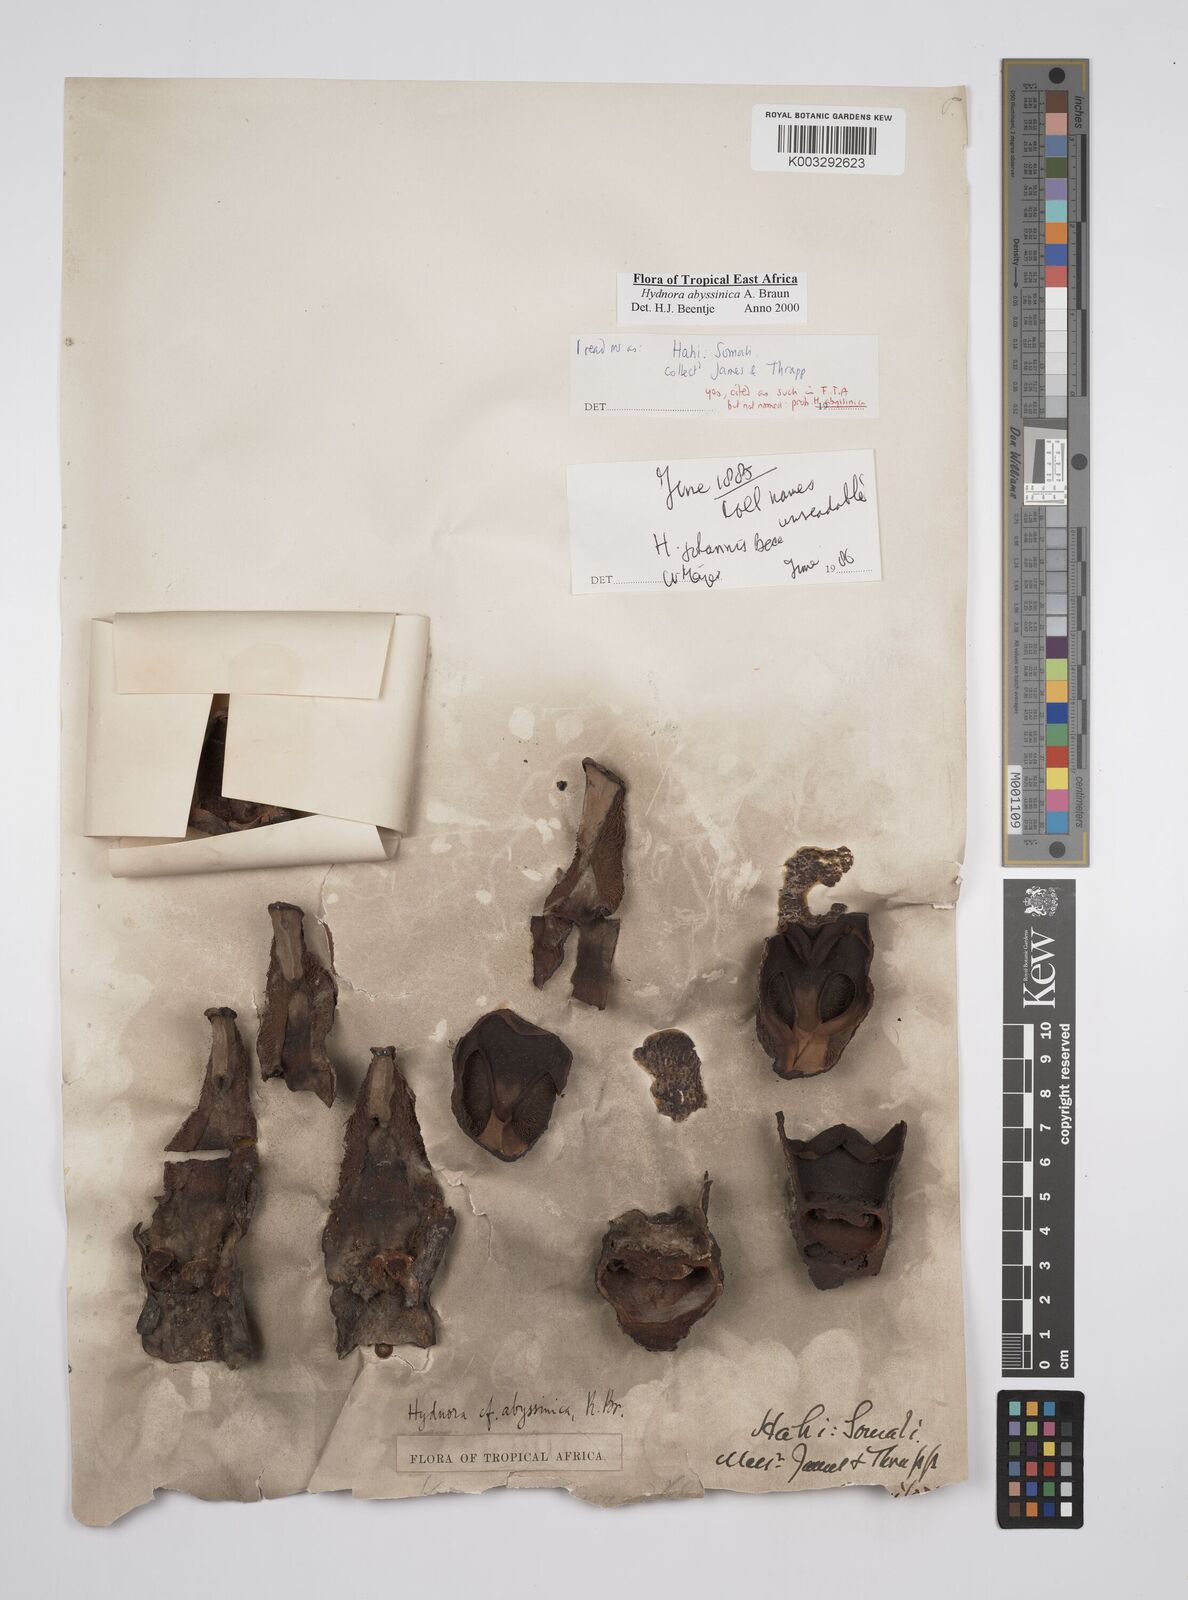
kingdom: Plantae
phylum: Tracheophyta
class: Magnoliopsida
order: Piperales
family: Hydnoraceae
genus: Hydnora
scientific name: Hydnora abyssinica
